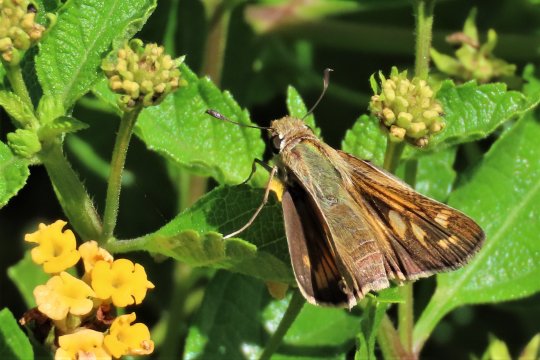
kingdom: Animalia
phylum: Arthropoda
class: Insecta
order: Lepidoptera
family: Hesperiidae
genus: Atalopedes
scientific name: Atalopedes campestris
